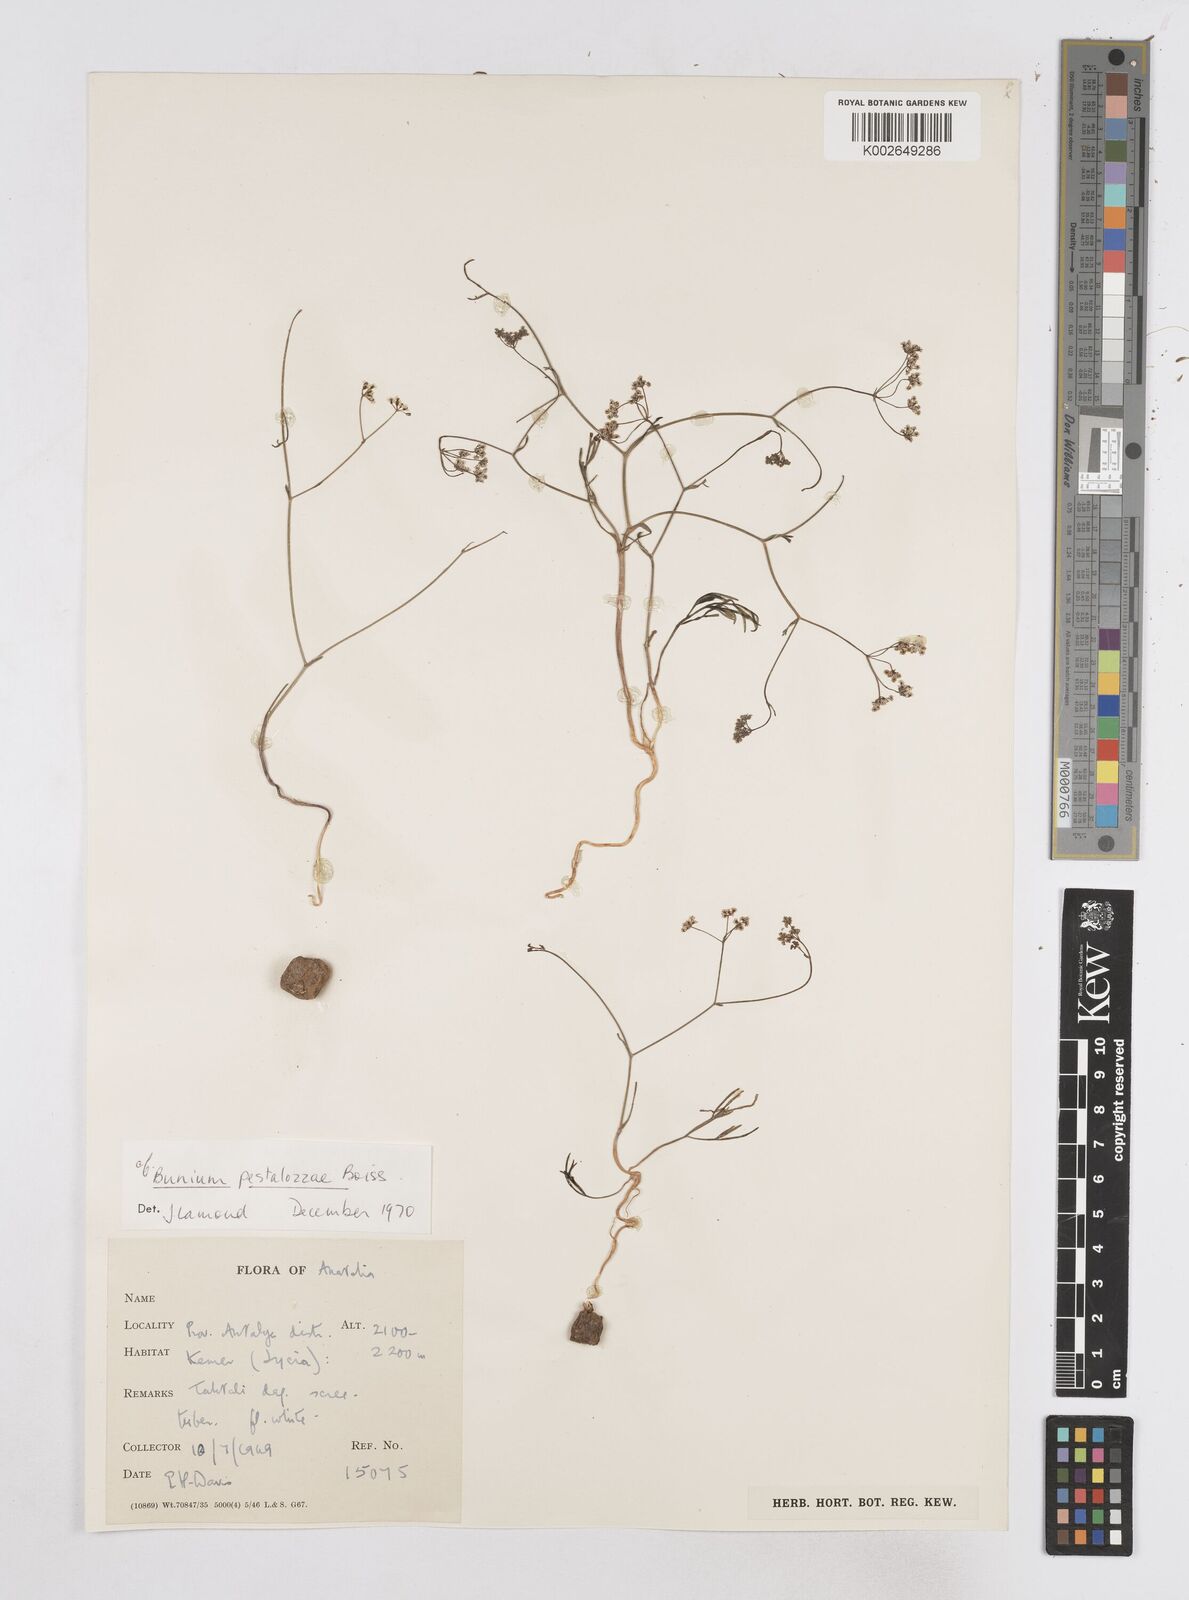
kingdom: Plantae
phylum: Tracheophyta
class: Magnoliopsida
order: Apiales
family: Apiaceae
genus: Bunium
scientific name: Bunium pestalozzae
